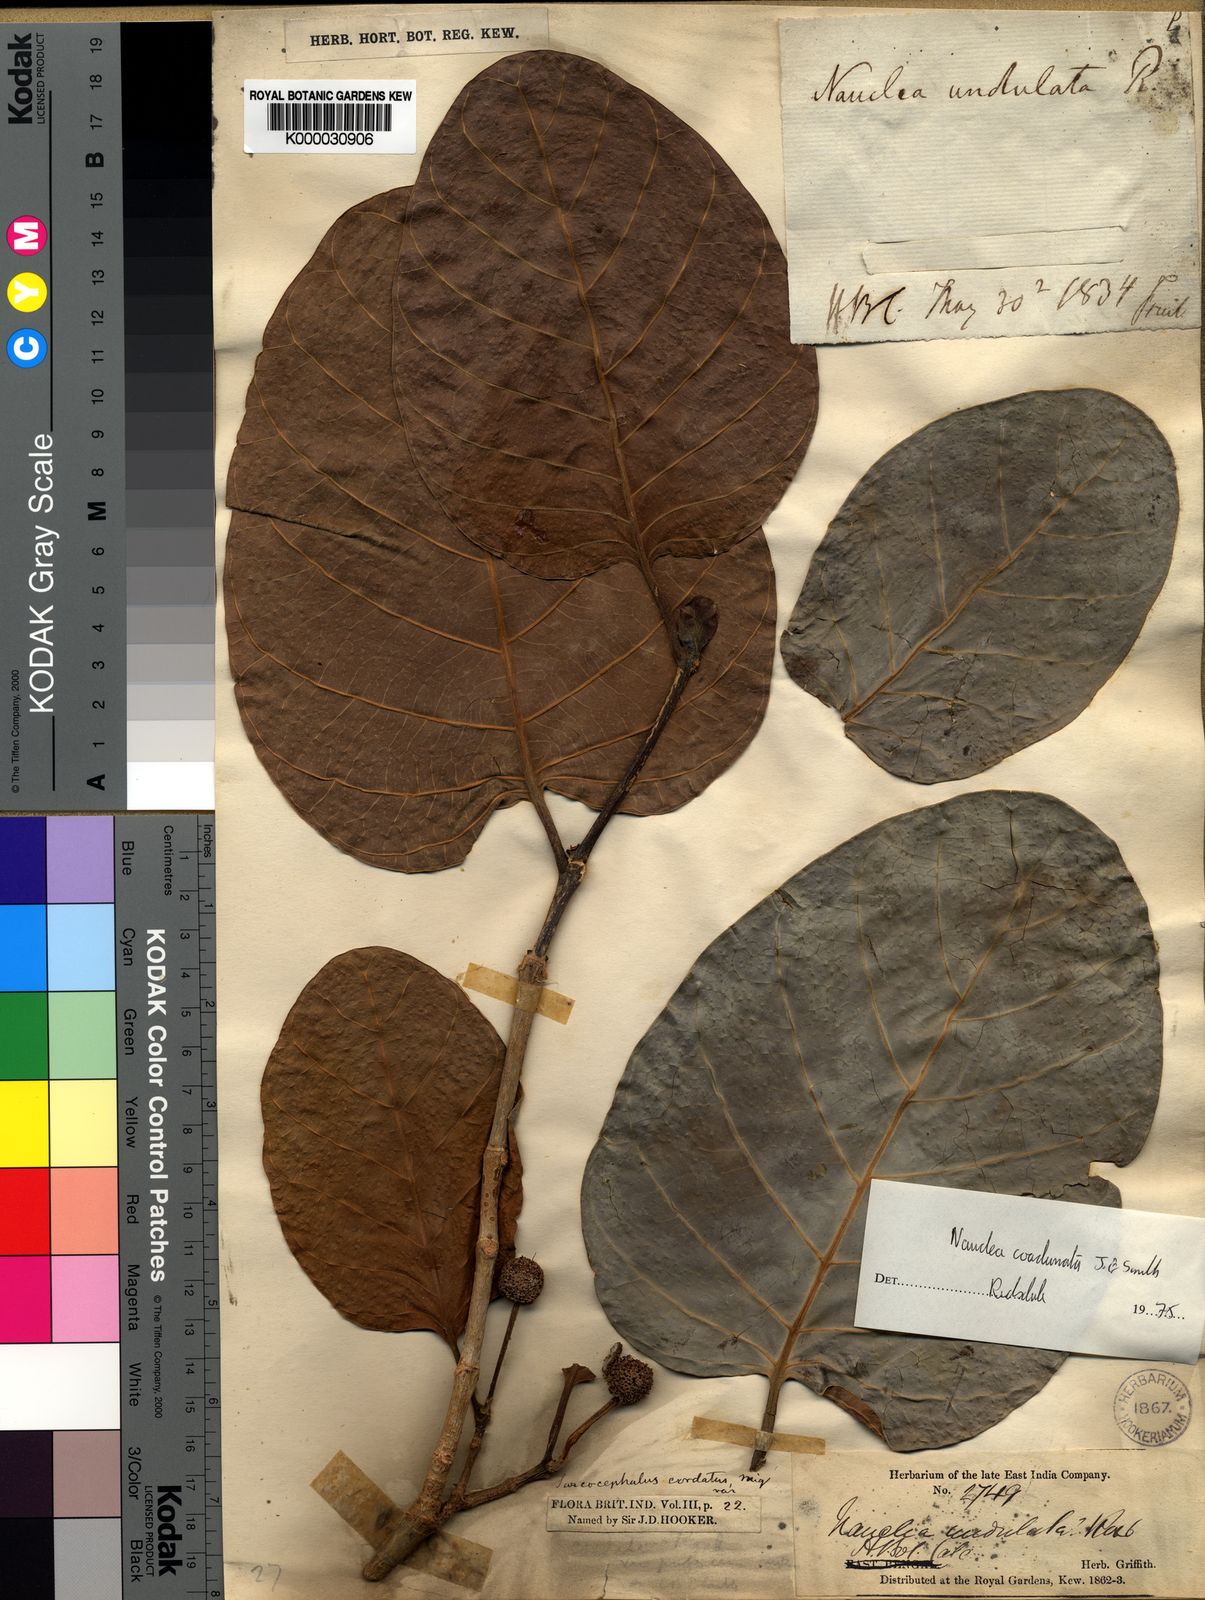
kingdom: Plantae
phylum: Tracheophyta
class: Magnoliopsida
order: Gentianales
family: Rubiaceae
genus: Nauclea
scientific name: Nauclea orientalis
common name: Leichhardt-pine
